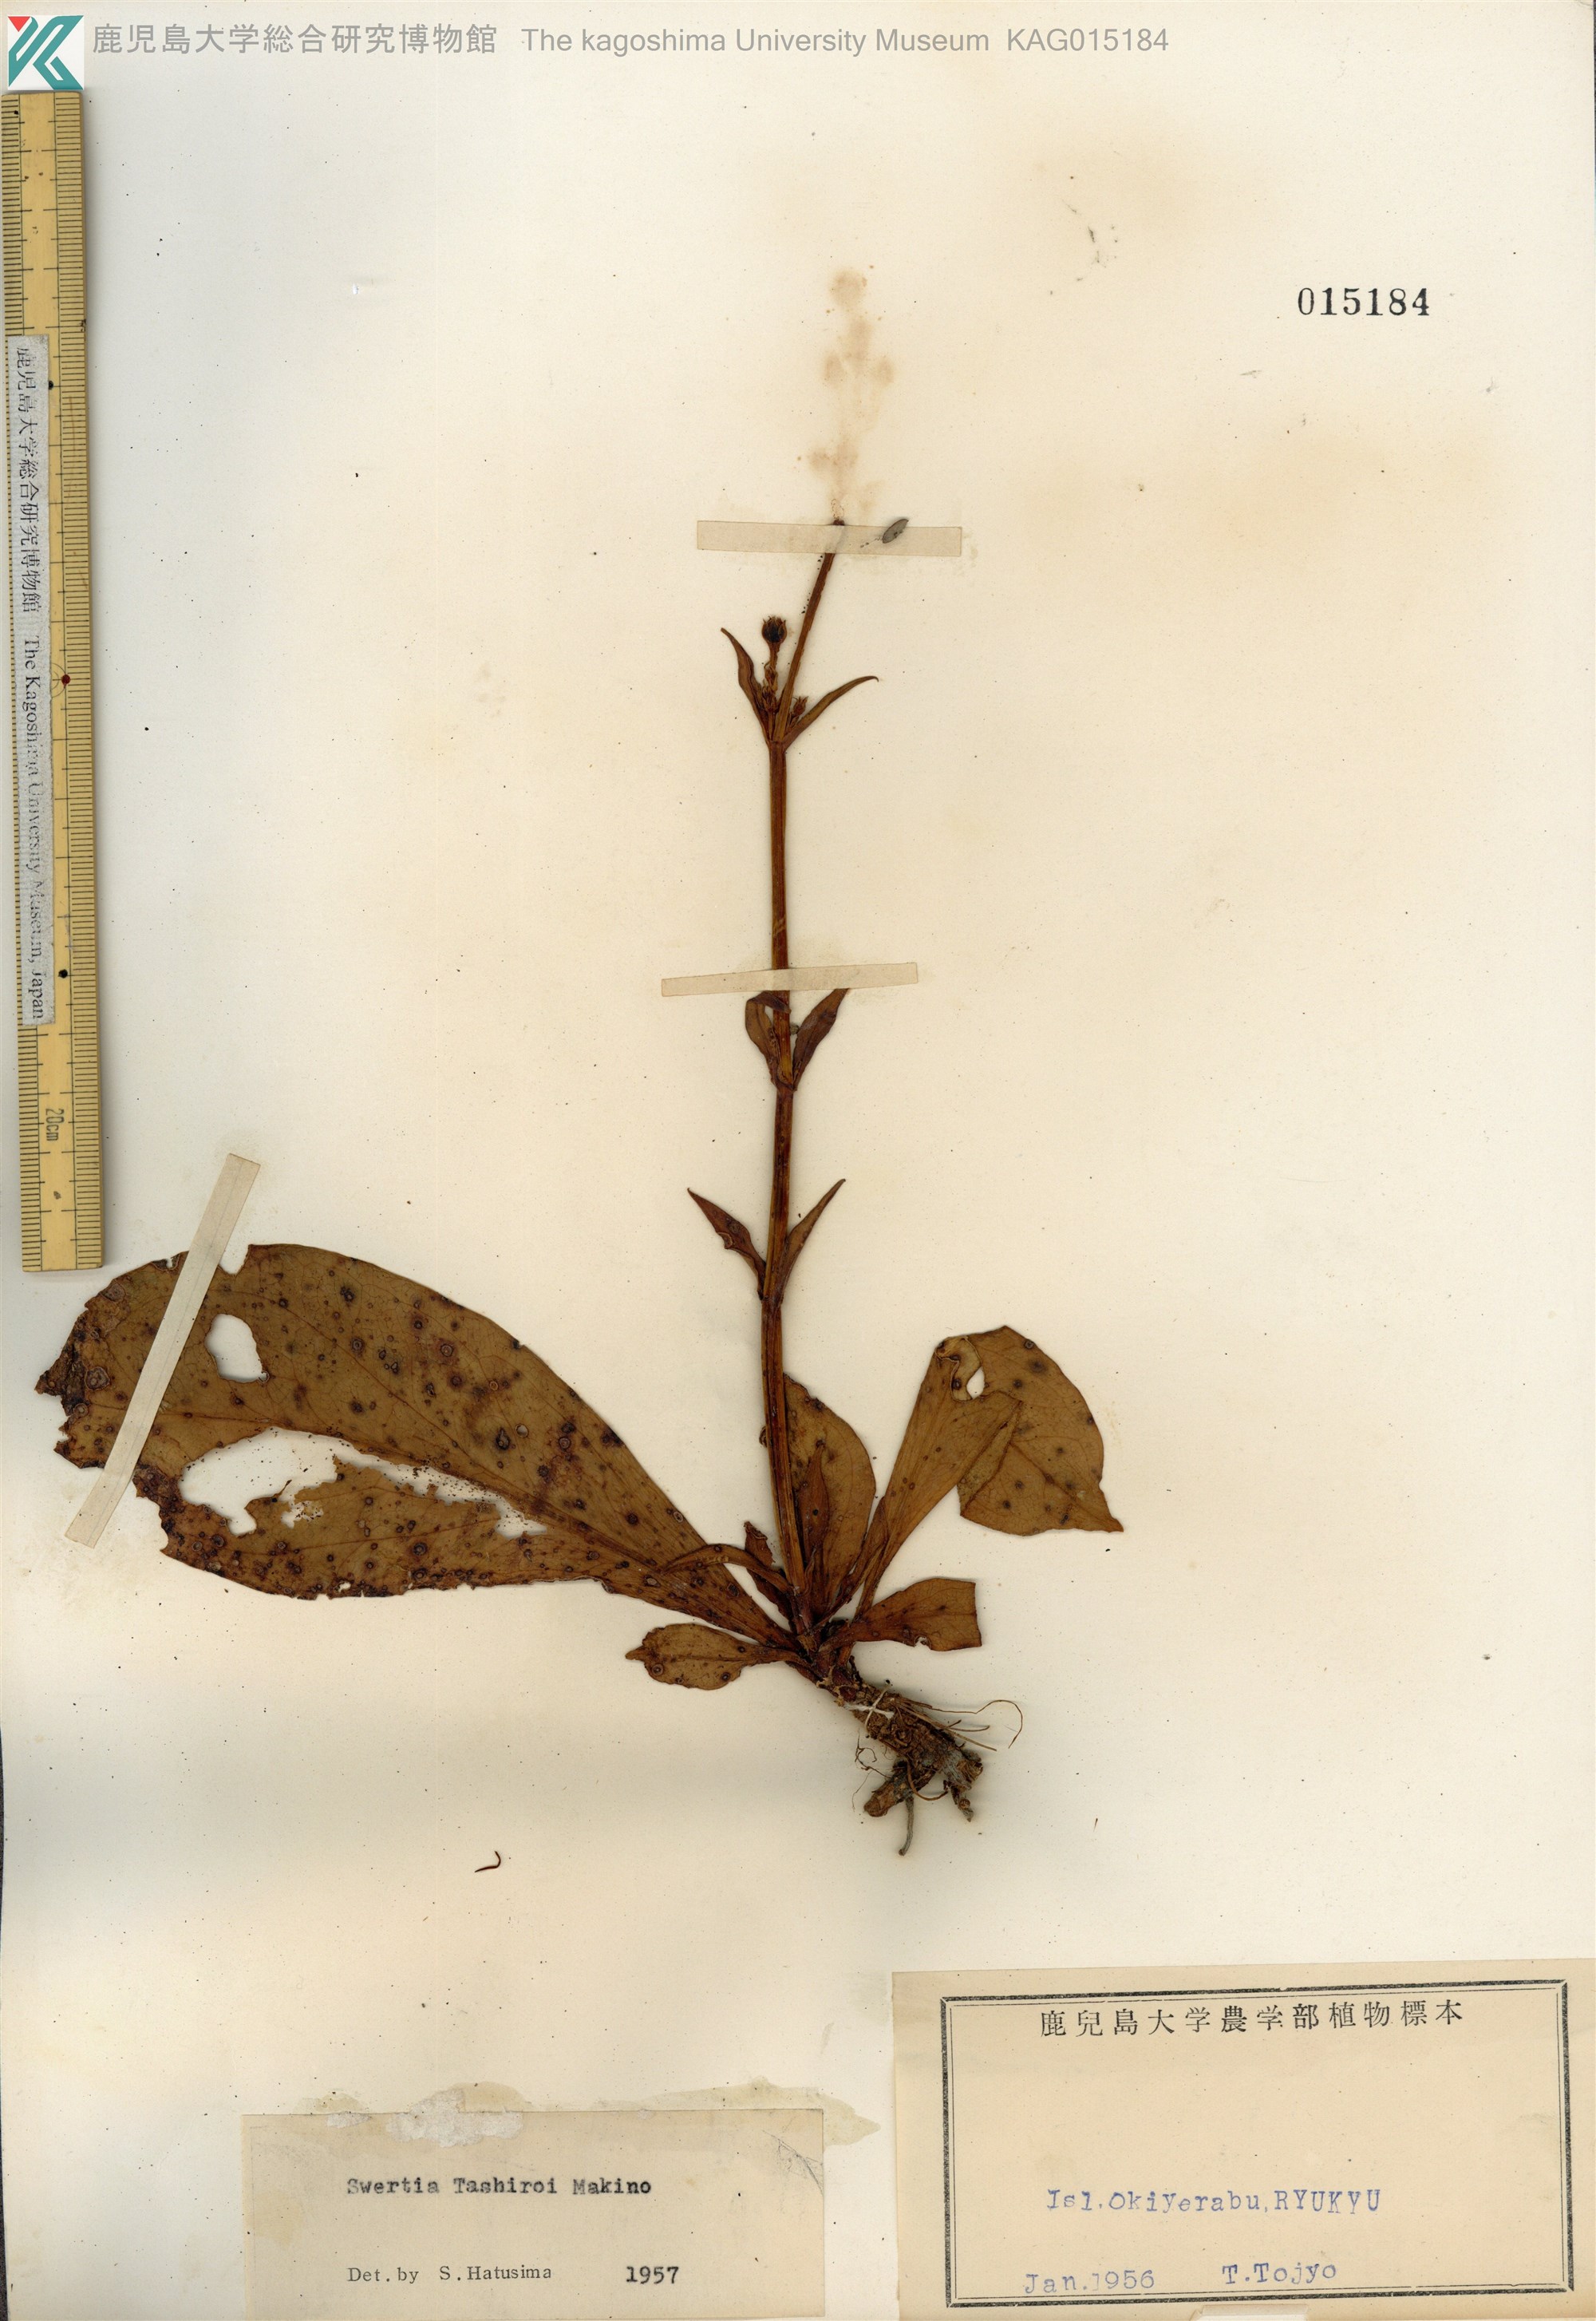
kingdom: Plantae
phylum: Tracheophyta
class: Magnoliopsida
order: Gentianales
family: Gentianaceae
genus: Swertia
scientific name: Swertia tashiroi
